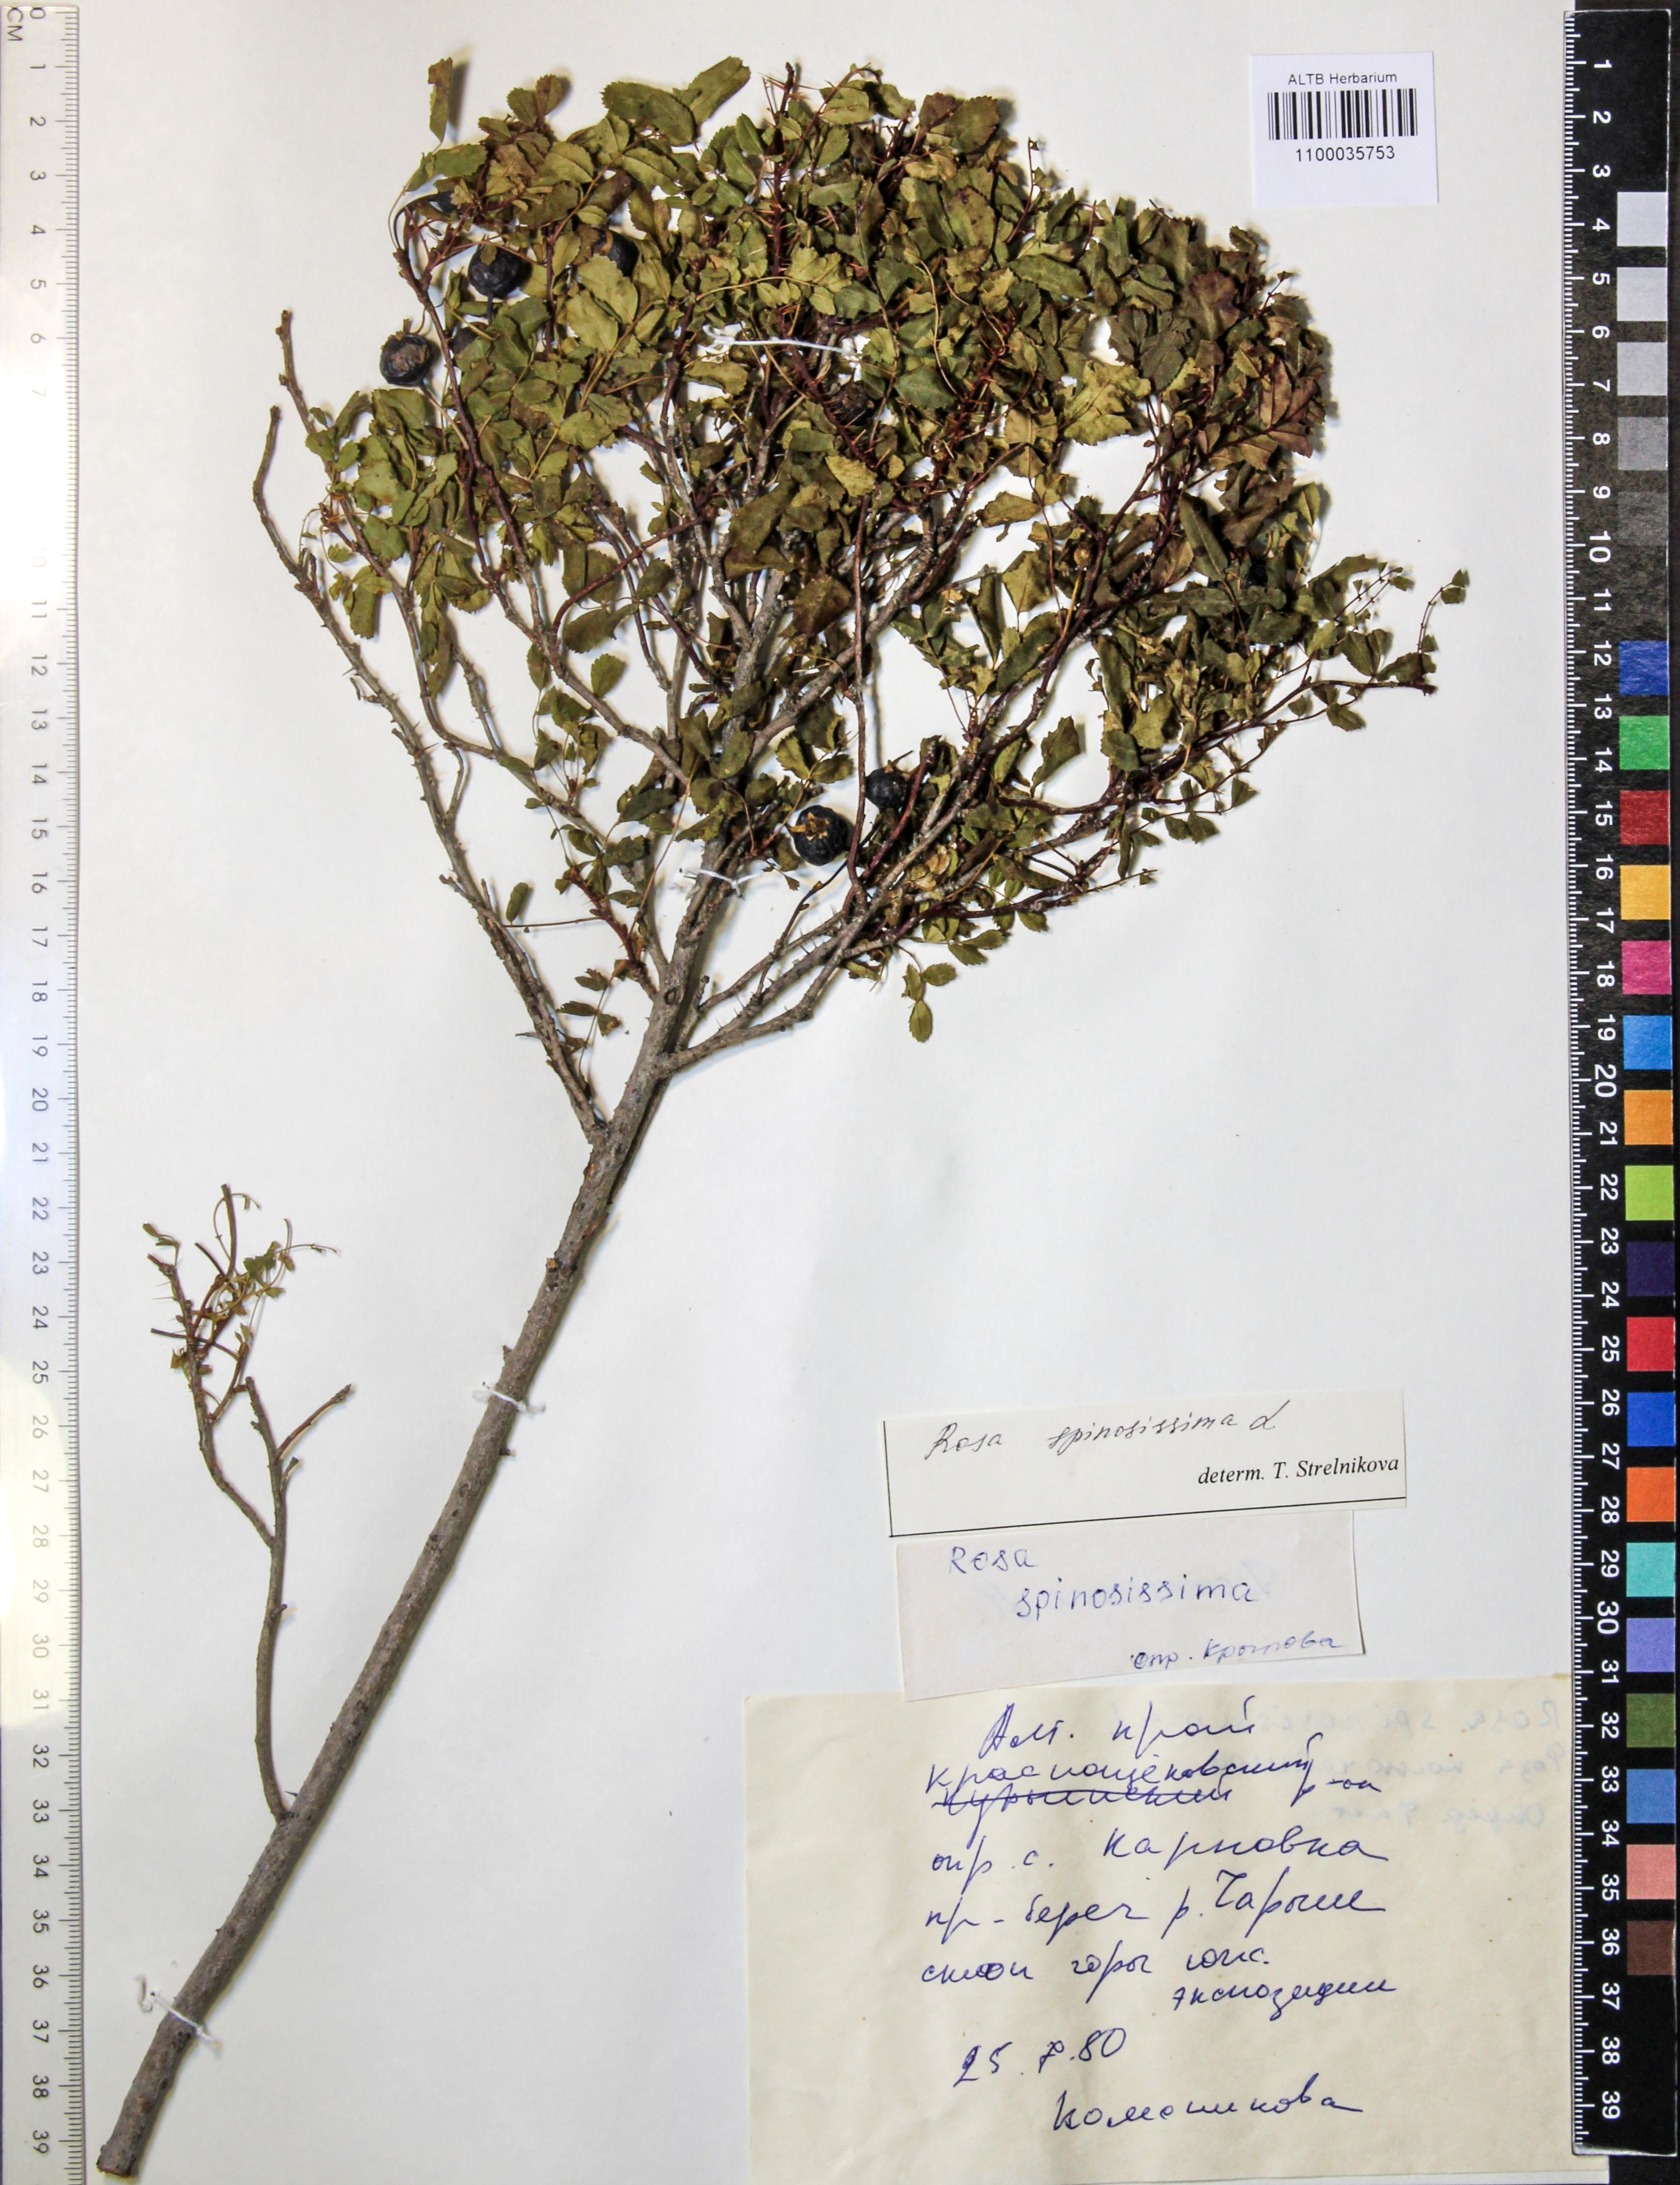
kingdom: Plantae
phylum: Tracheophyta
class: Magnoliopsida
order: Rosales
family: Rosaceae
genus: Rosa
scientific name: Rosa spinosissima
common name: Burnet rose
